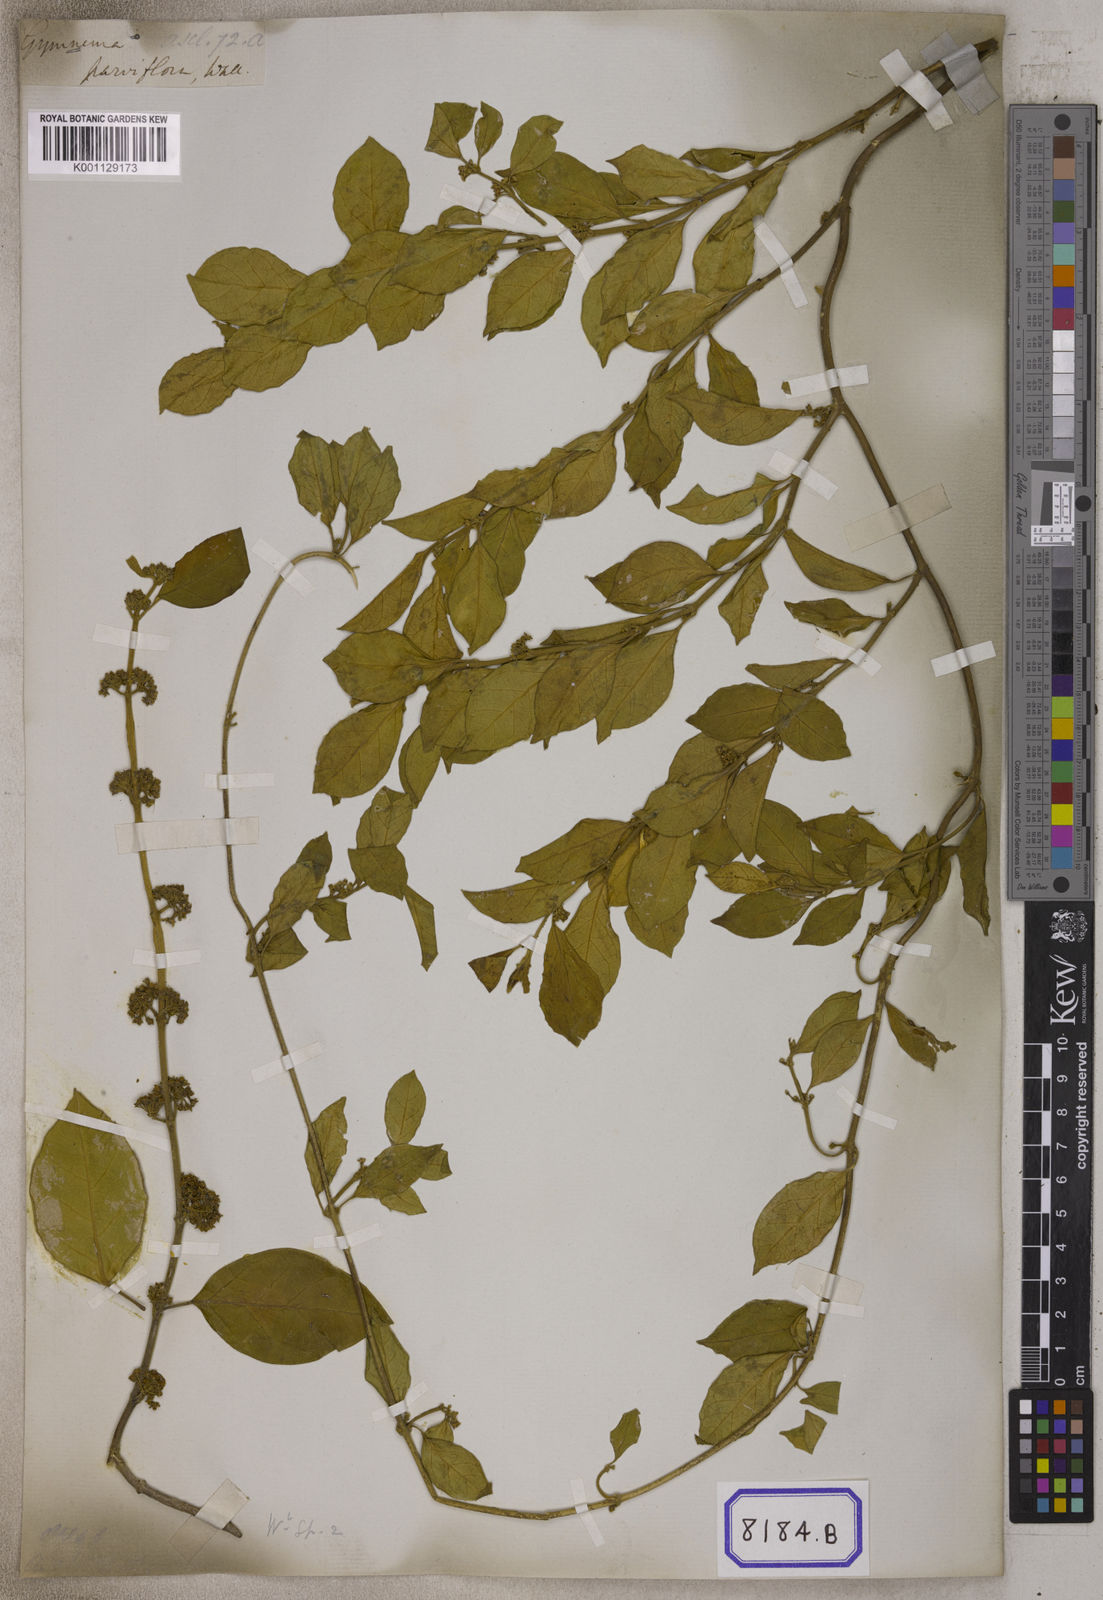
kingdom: Plantae
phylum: Tracheophyta
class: Magnoliopsida
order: Gentianales
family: Apocynaceae
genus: Gymnema
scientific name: Gymnema
